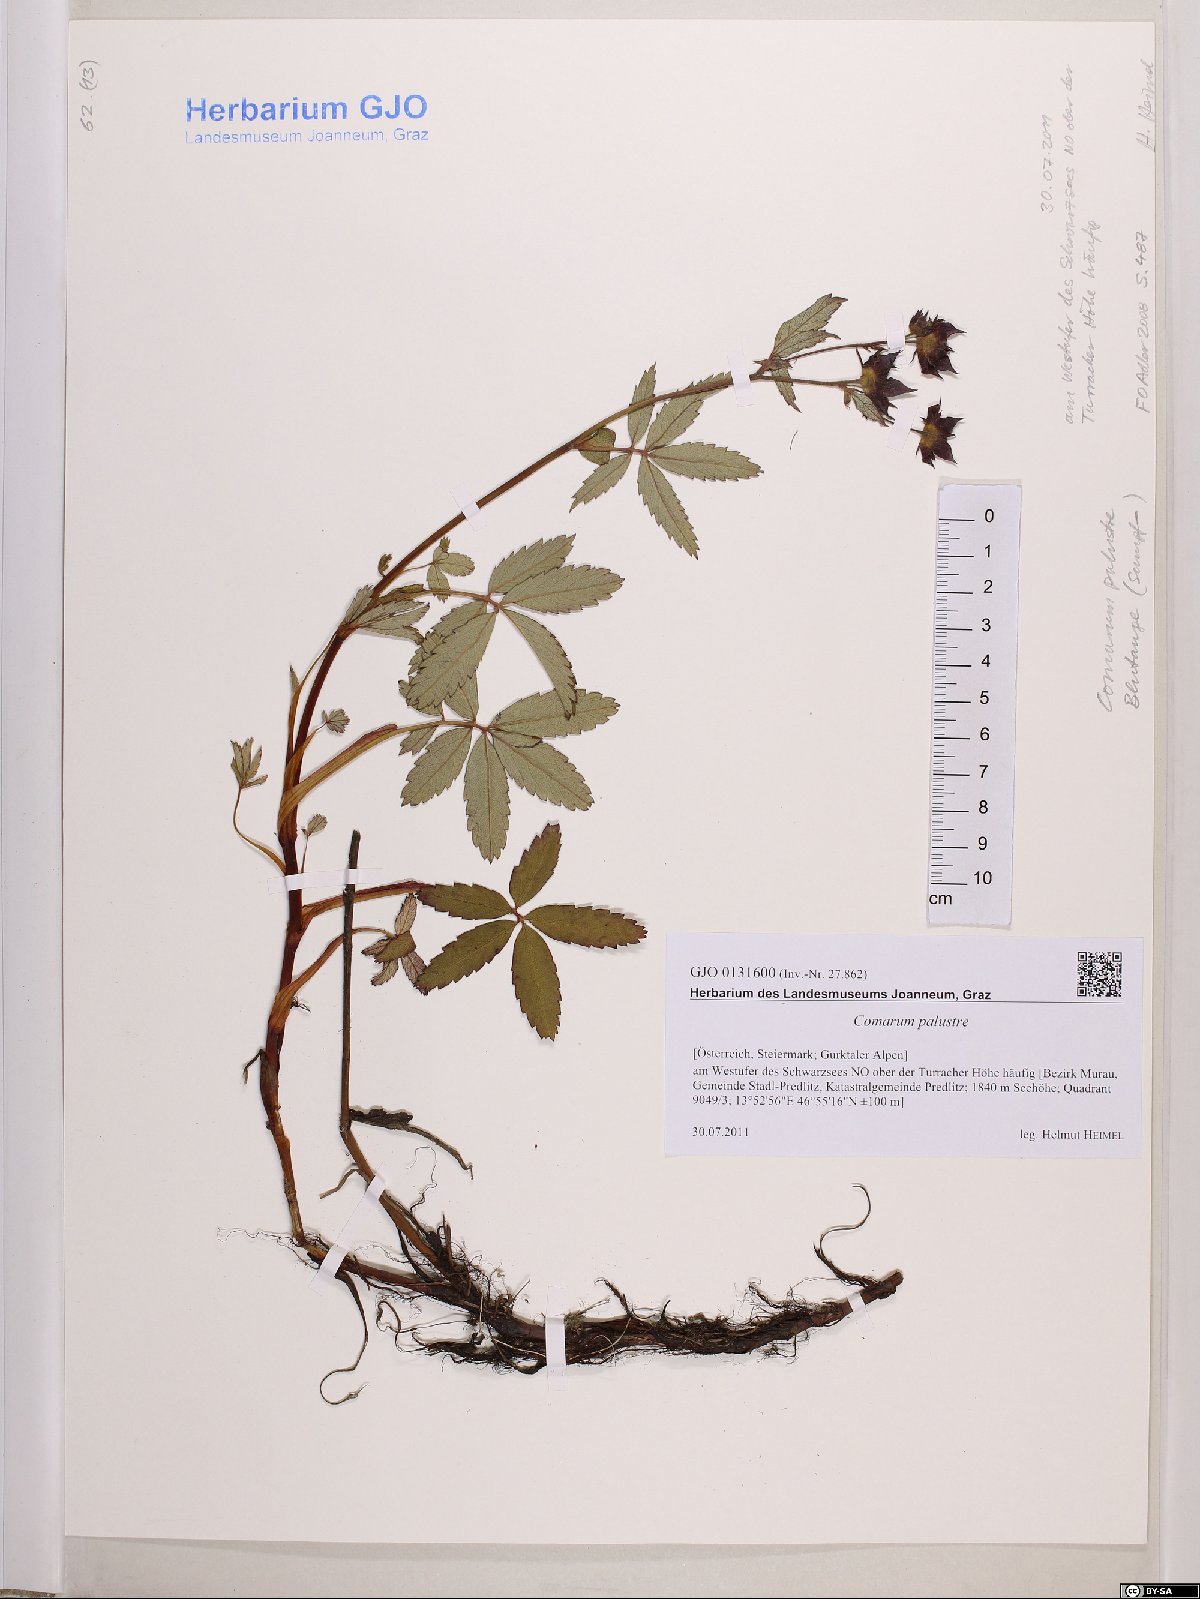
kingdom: Plantae
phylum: Tracheophyta
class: Magnoliopsida
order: Rosales
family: Rosaceae
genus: Comarum
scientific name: Comarum palustre
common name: Marsh cinquefoil
